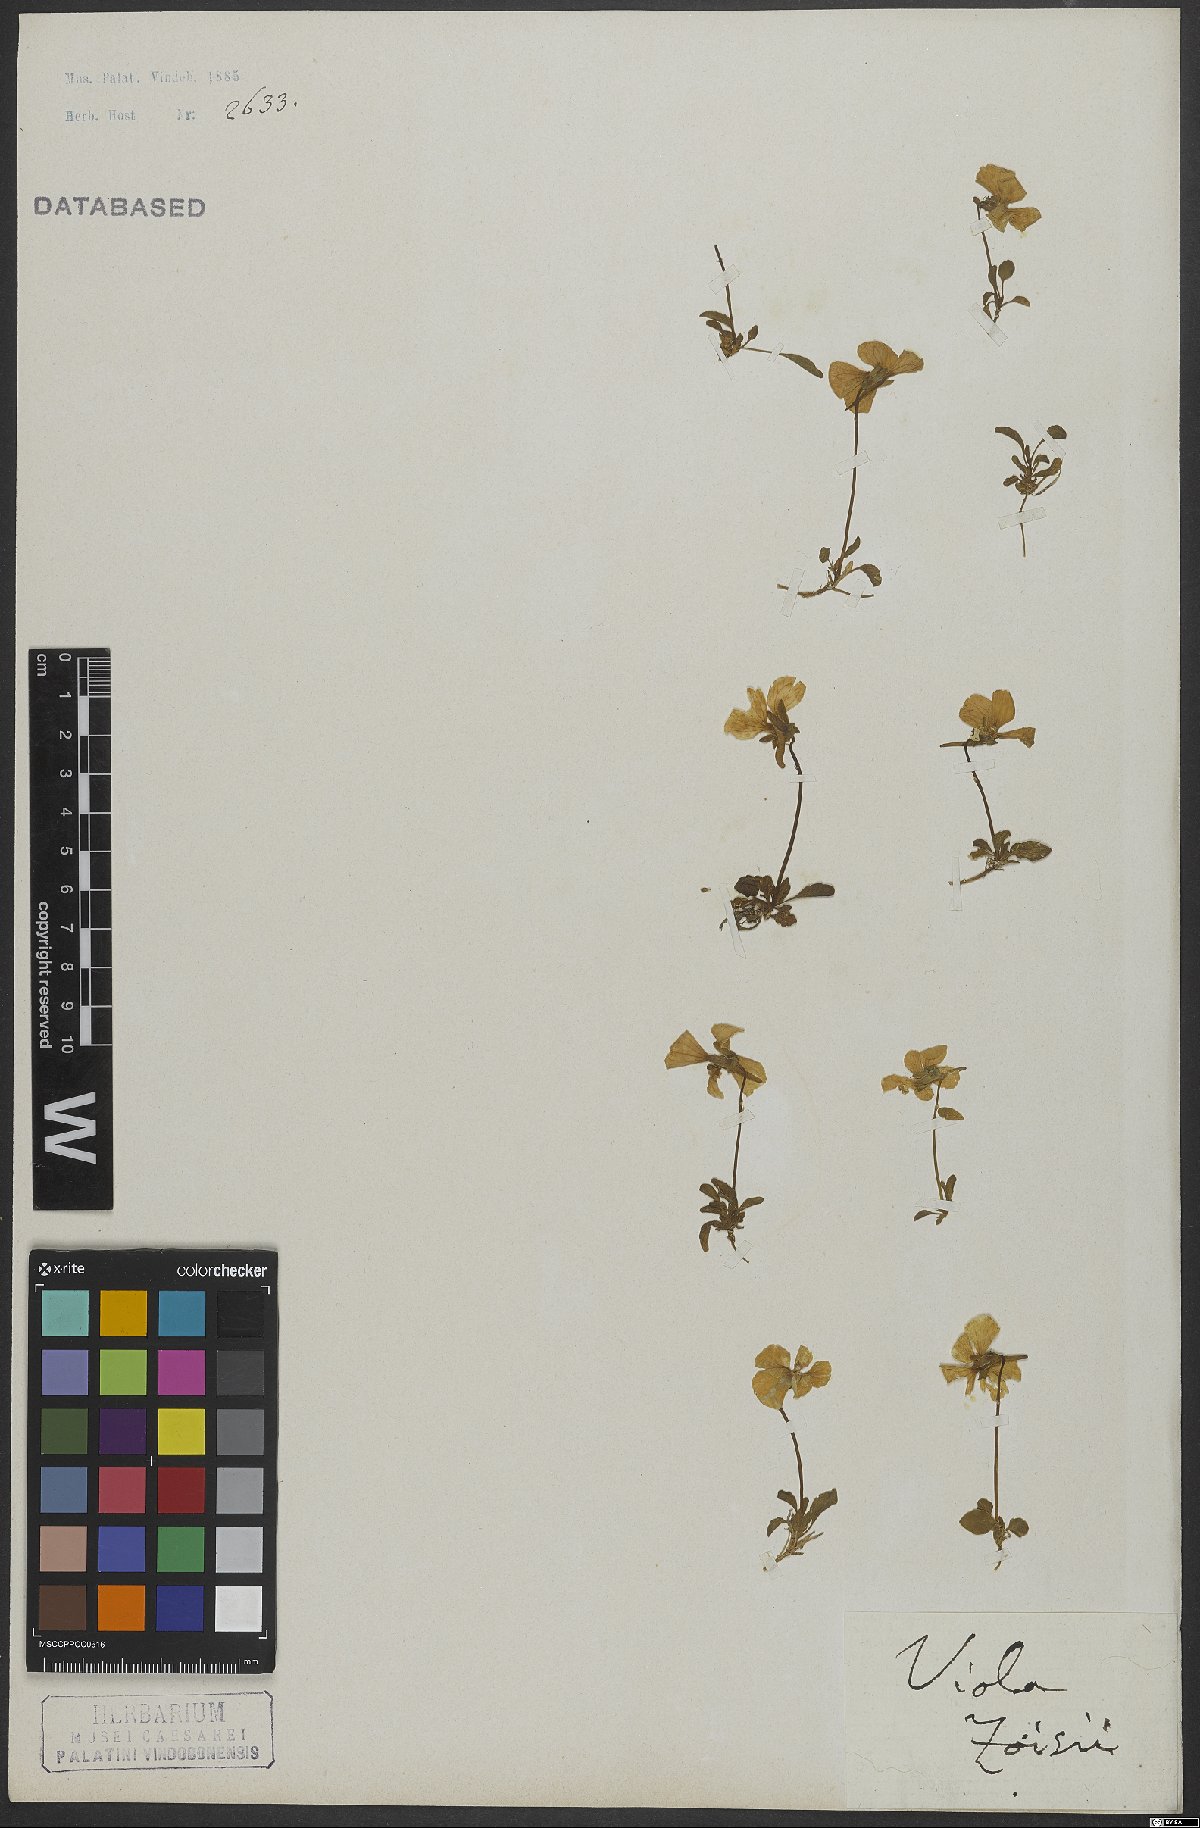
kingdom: Plantae
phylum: Tracheophyta
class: Magnoliopsida
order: Malpighiales
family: Violaceae
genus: Viola
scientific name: Viola calcarata
